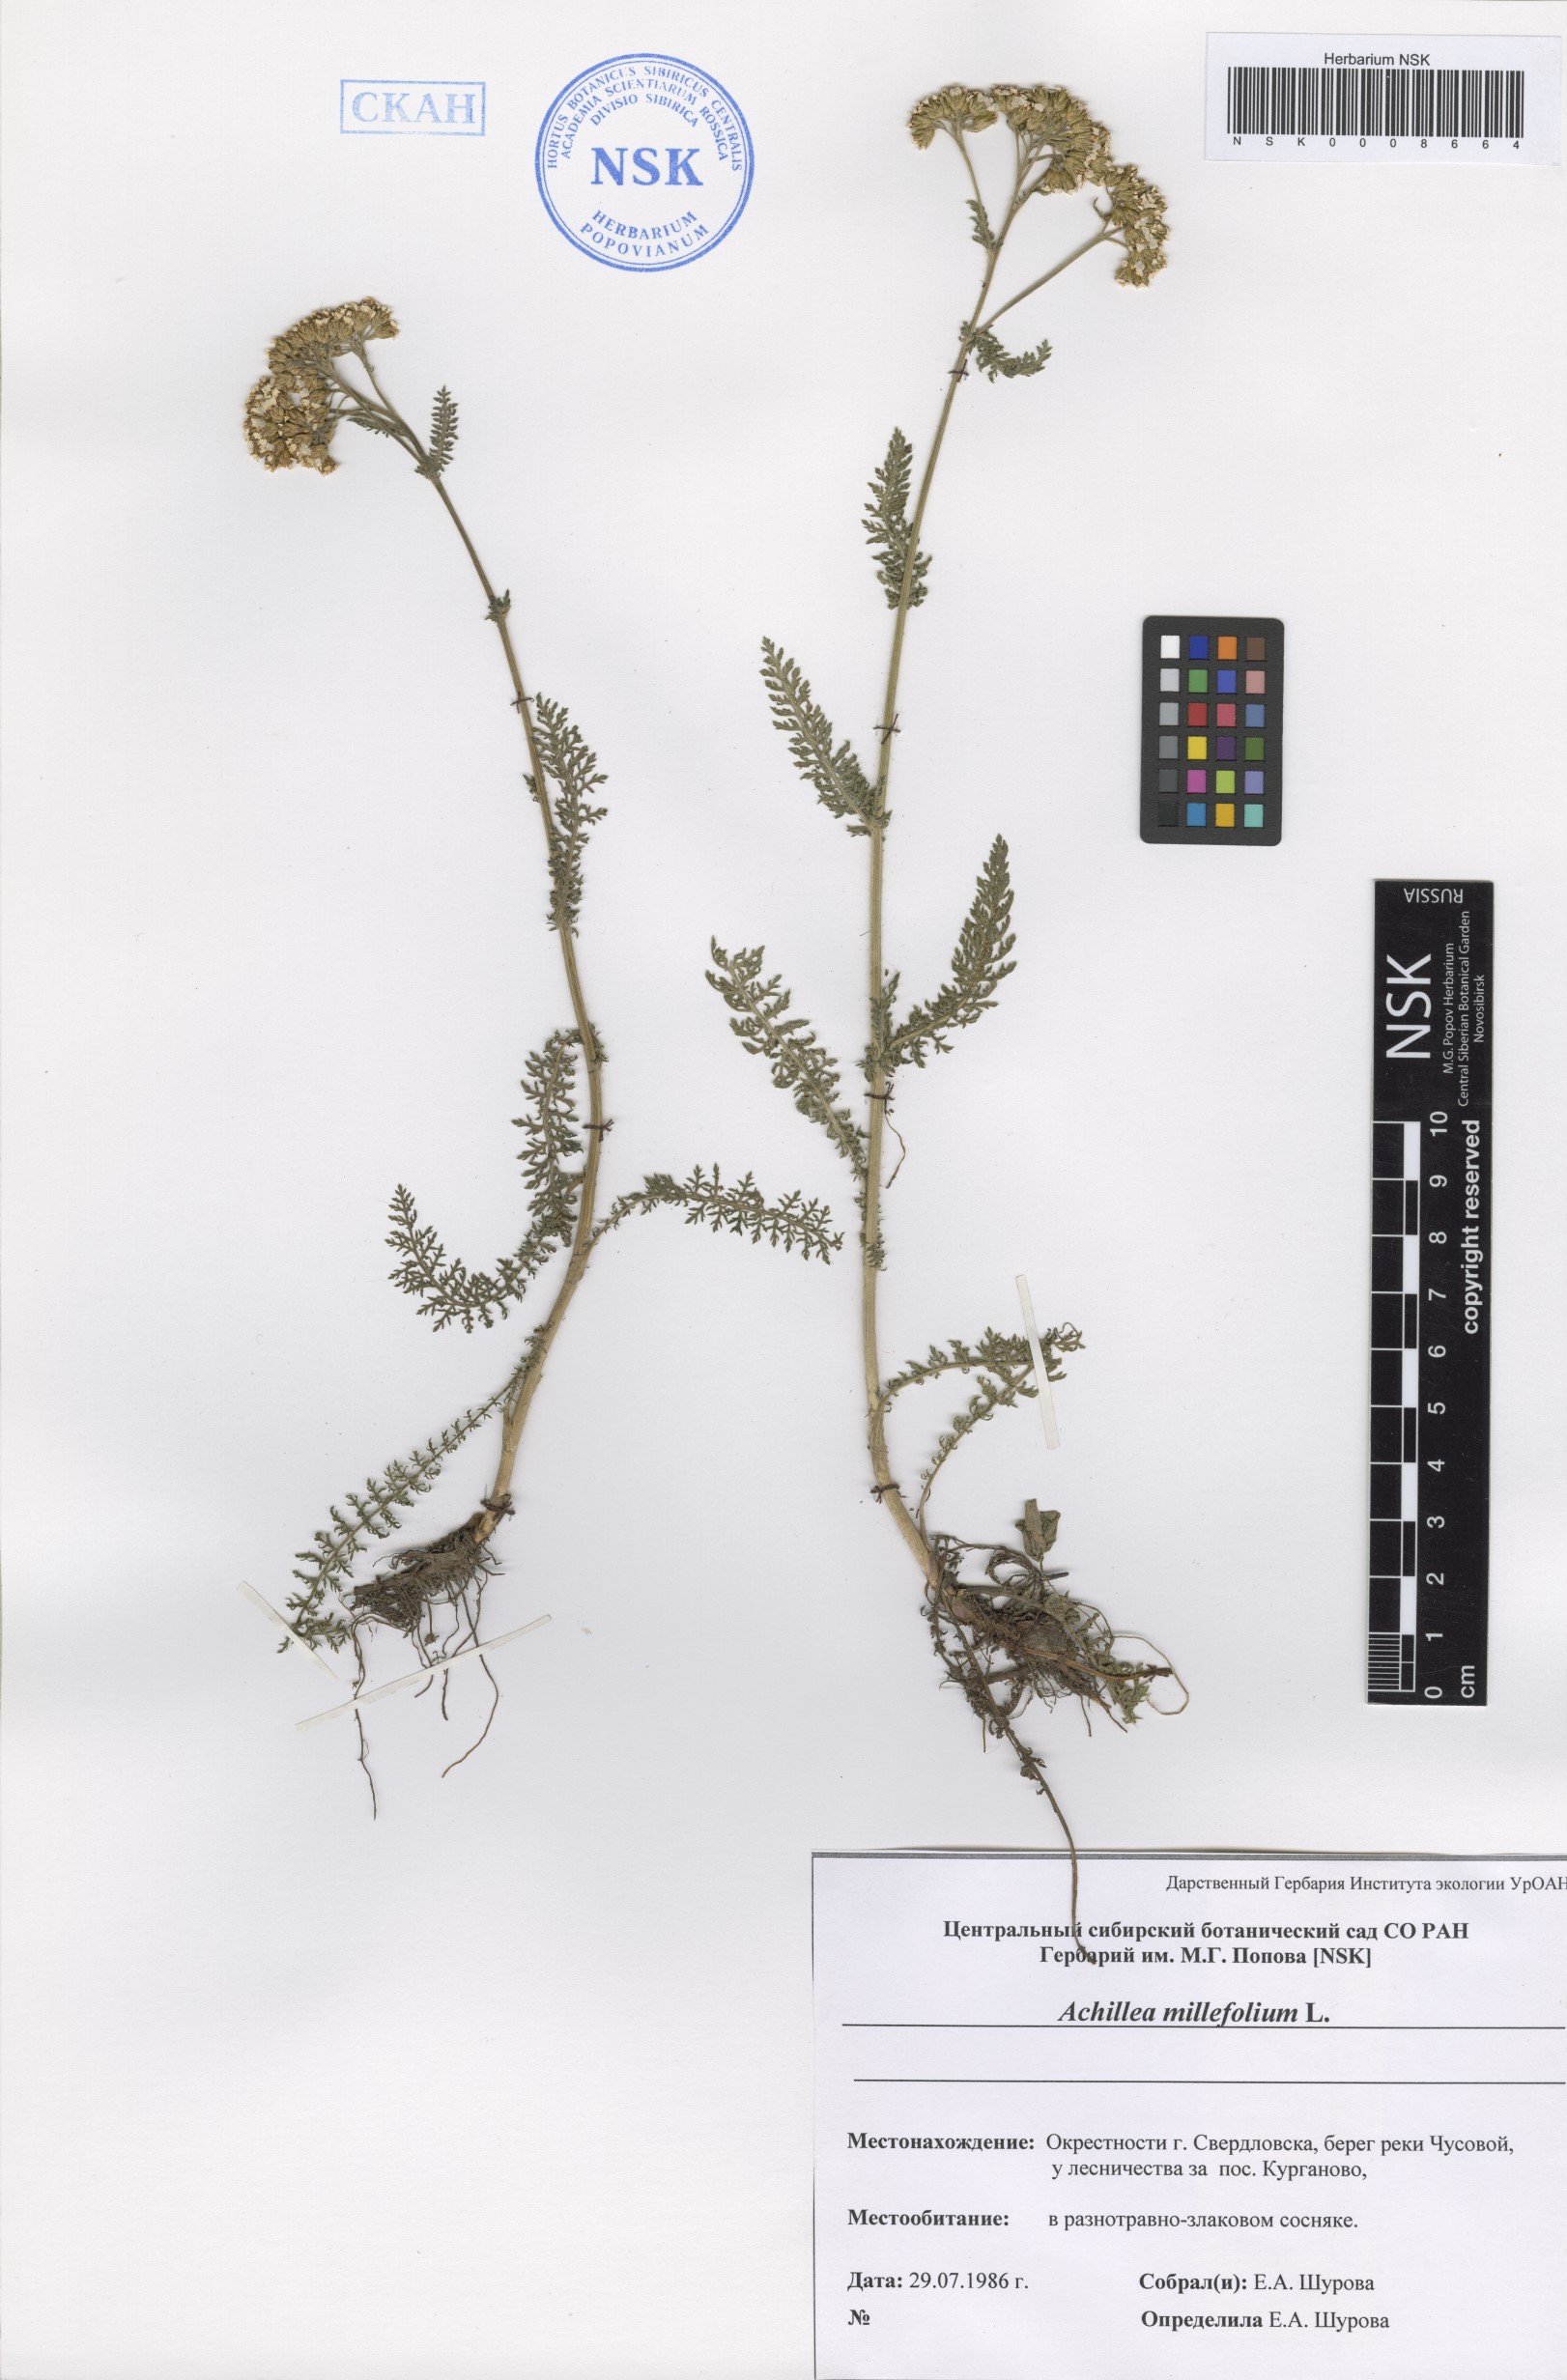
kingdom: Plantae
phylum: Tracheophyta
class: Magnoliopsida
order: Asterales
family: Asteraceae
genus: Achillea
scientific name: Achillea millefolium
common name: Yarrow
